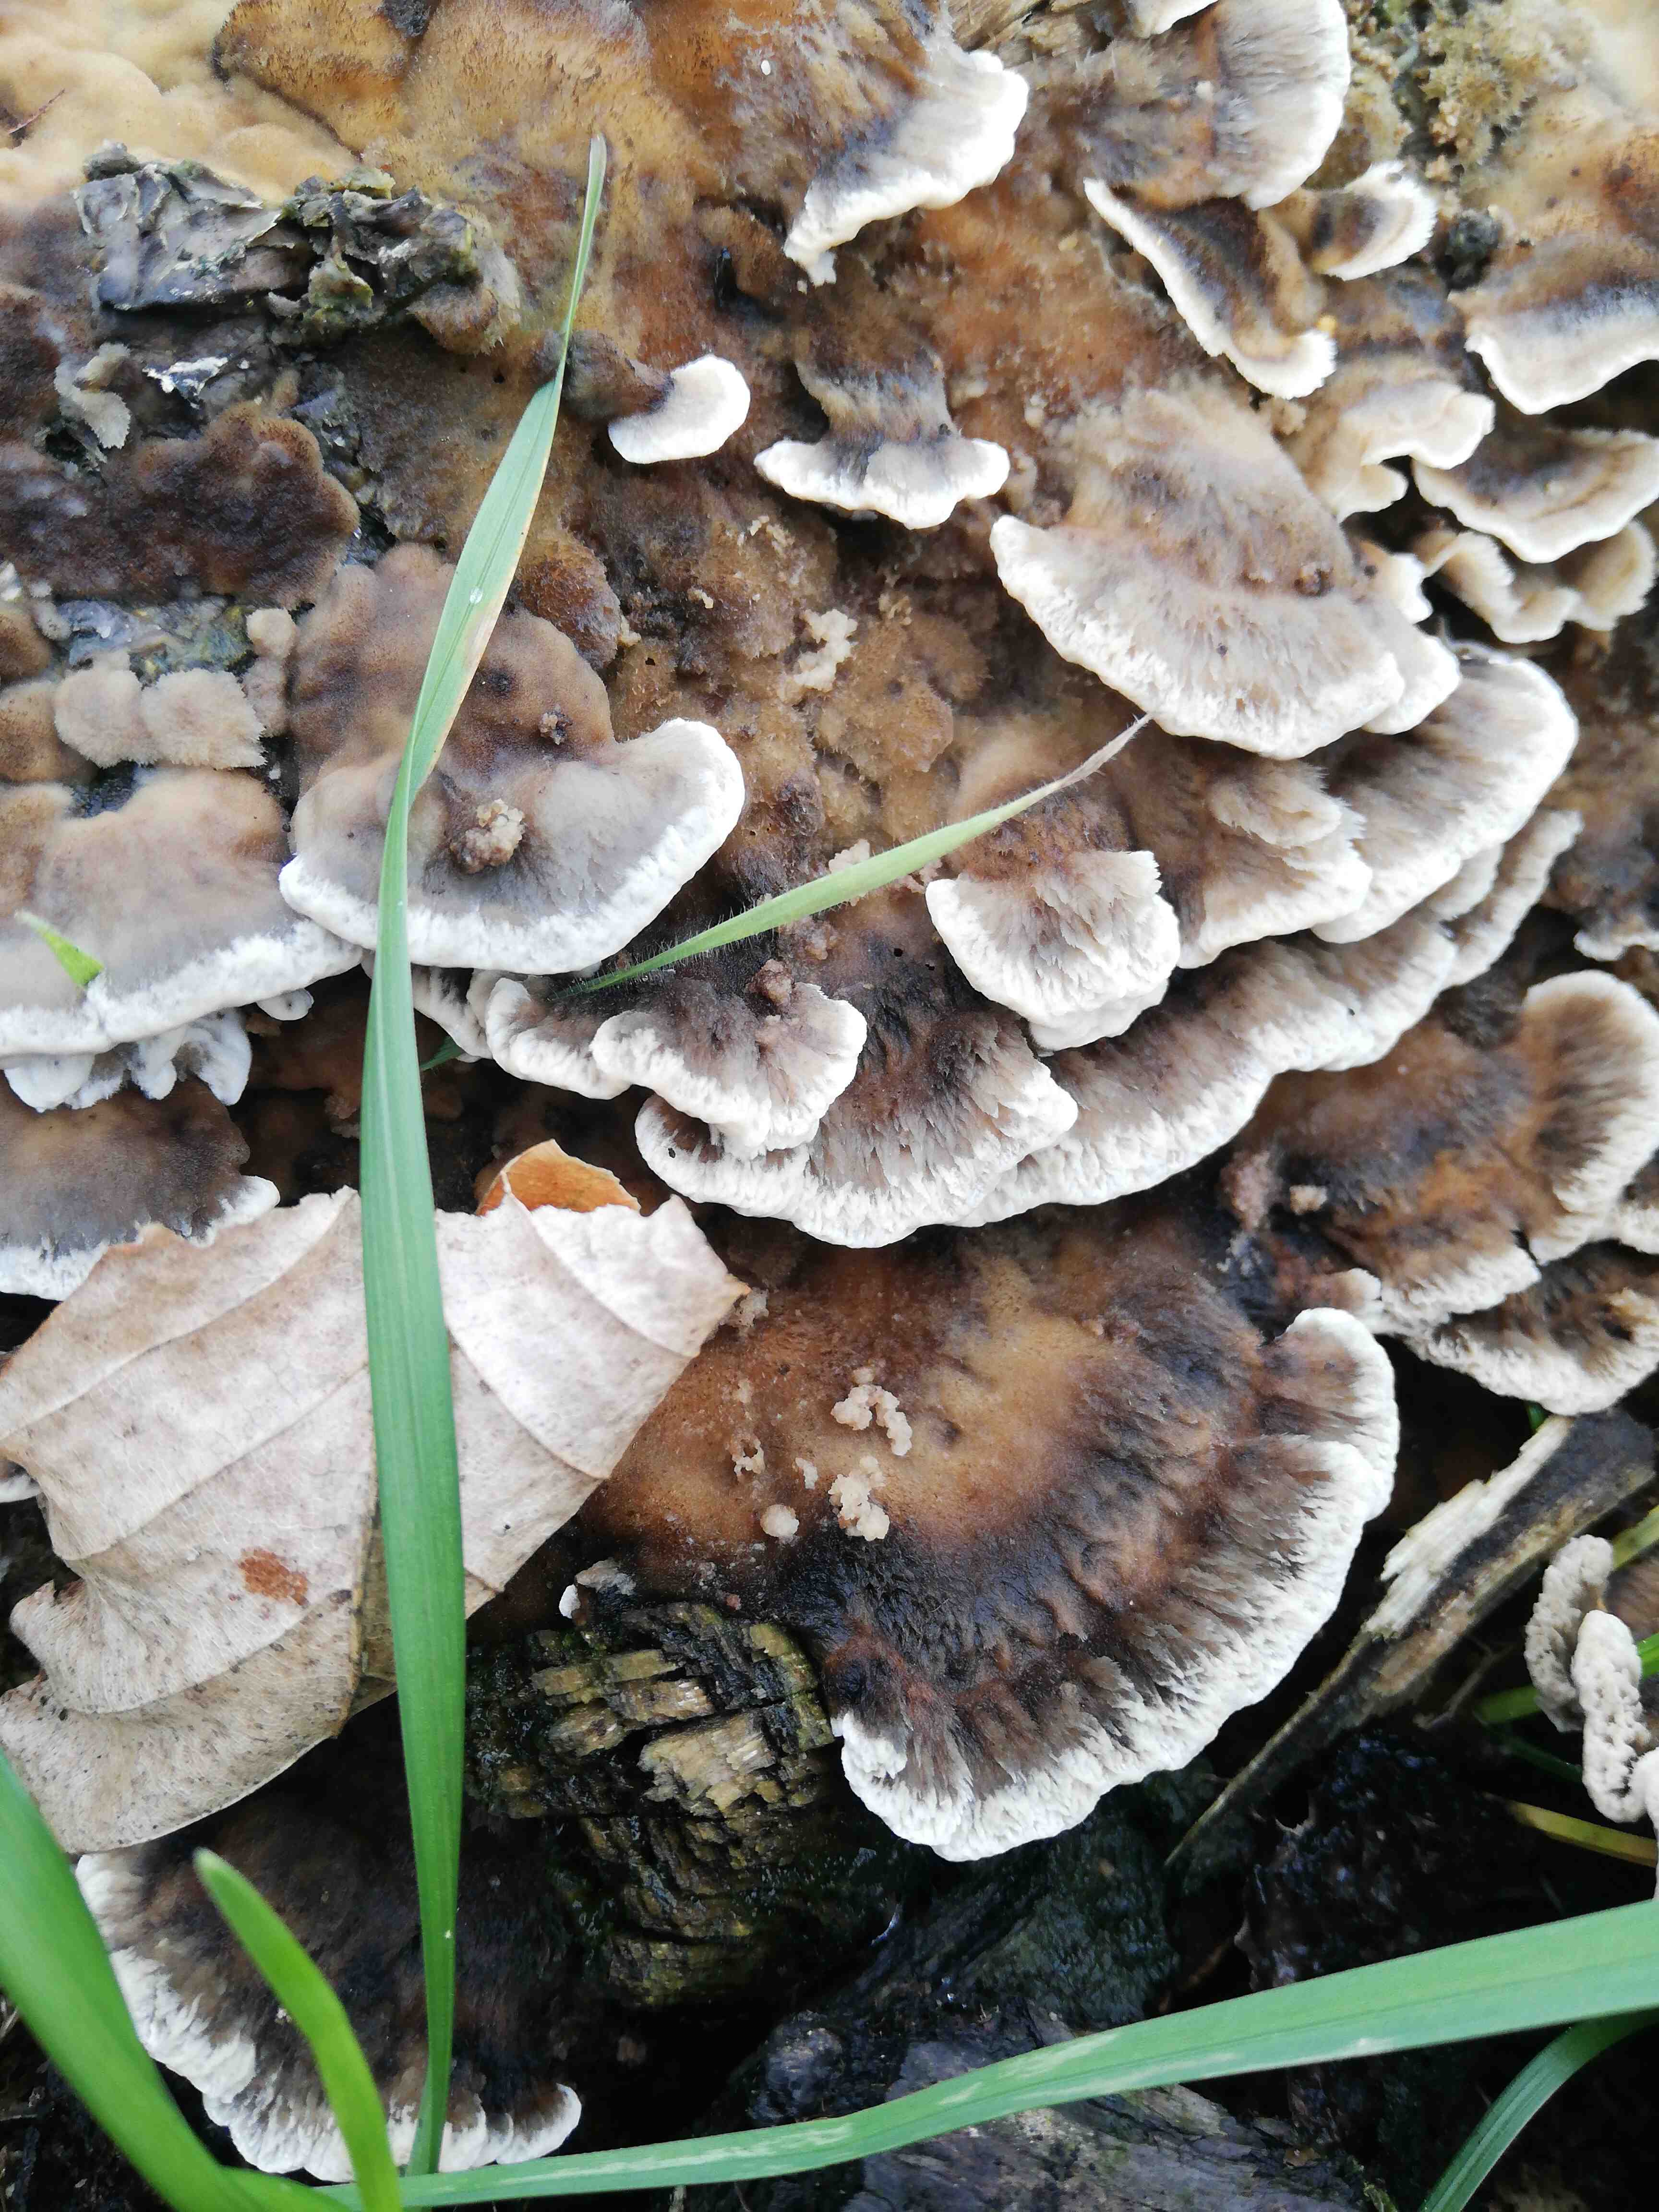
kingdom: Fungi
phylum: Basidiomycota
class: Agaricomycetes
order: Polyporales
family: Phanerochaetaceae
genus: Bjerkandera
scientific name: Bjerkandera adusta
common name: sveden sodporesvamp
